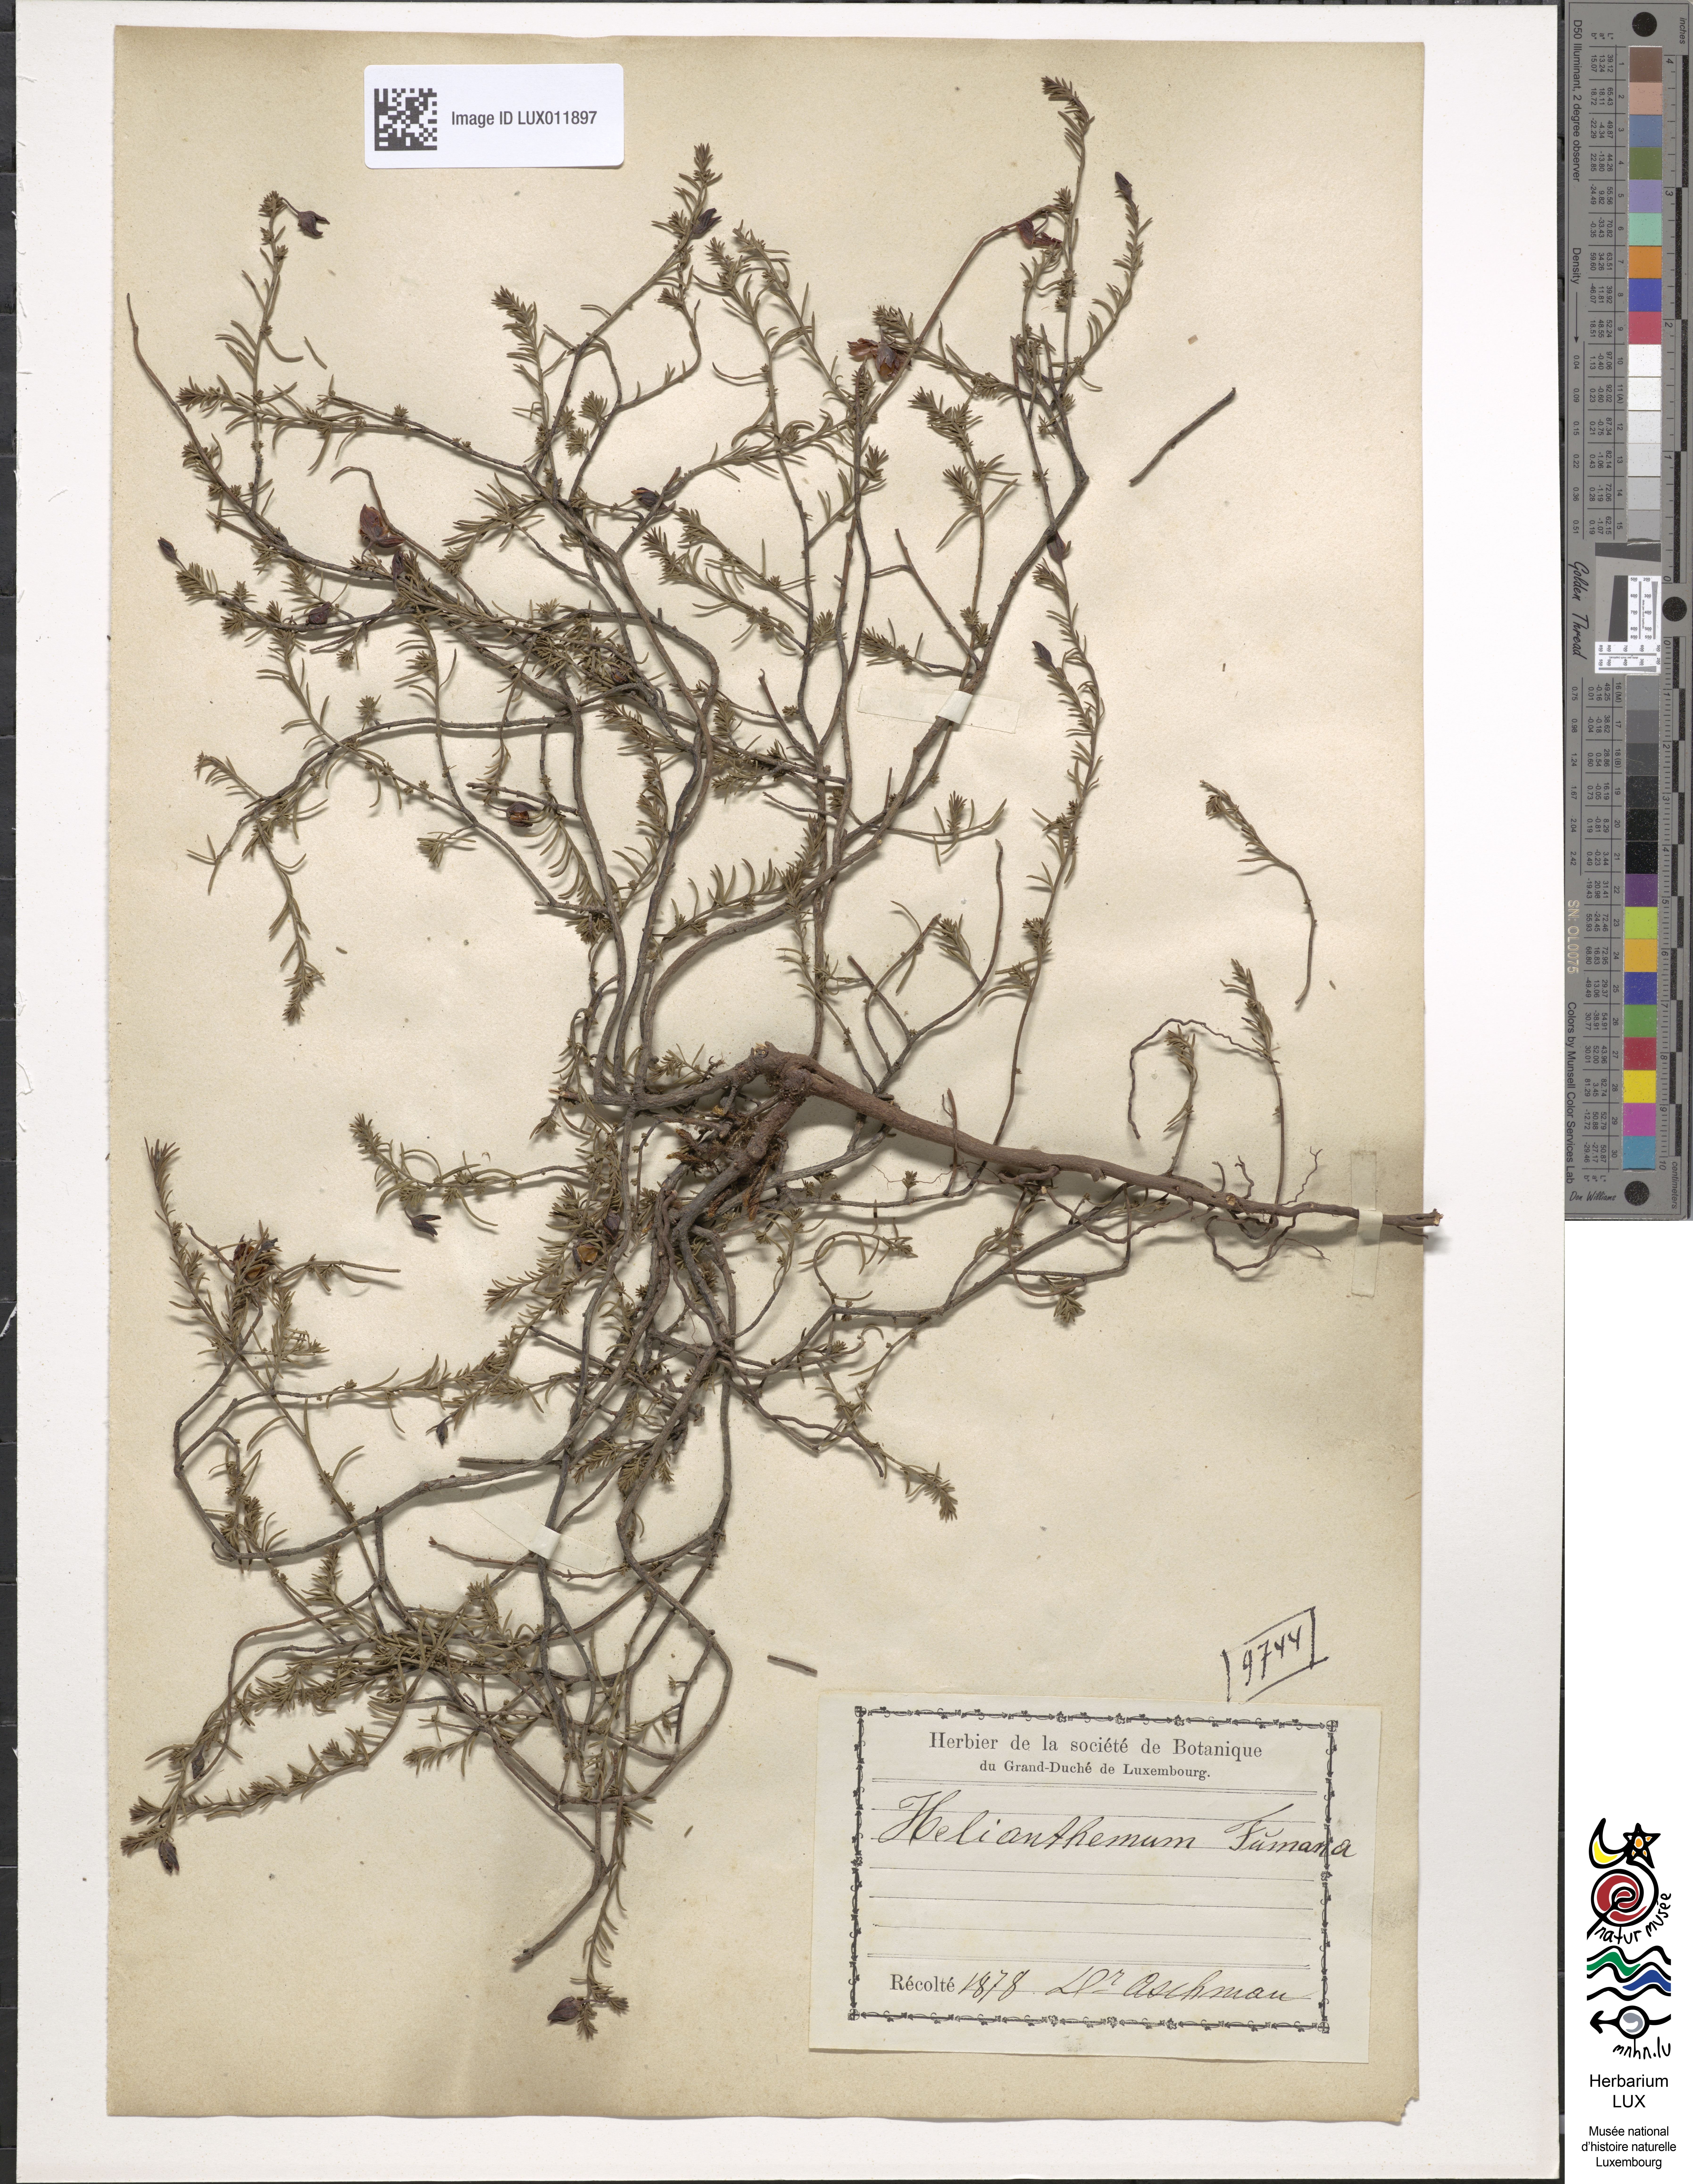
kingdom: Plantae
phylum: Tracheophyta
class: Magnoliopsida
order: Malvales
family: Cistaceae
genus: Fumana
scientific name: Fumana ericoides
